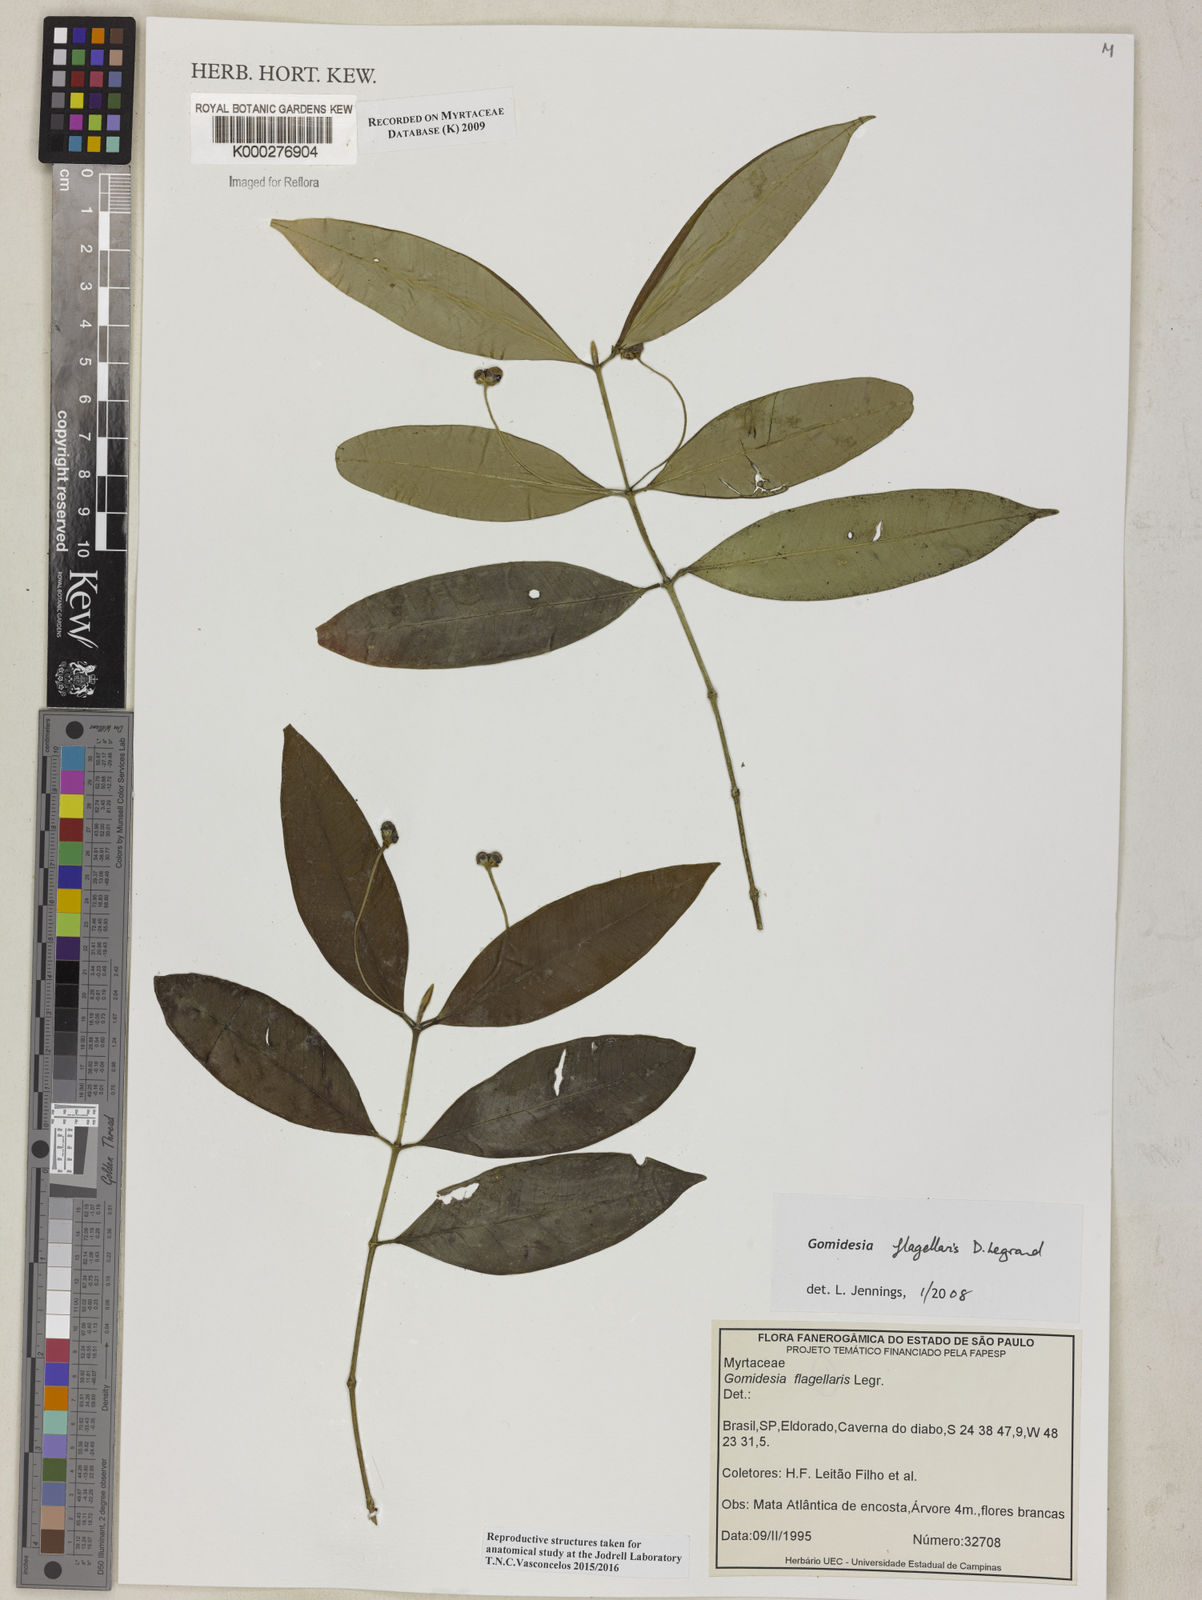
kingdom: Plantae
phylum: Tracheophyta
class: Magnoliopsida
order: Myrtales
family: Myrtaceae
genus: Myrcia
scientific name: Myrcia flagellaris
